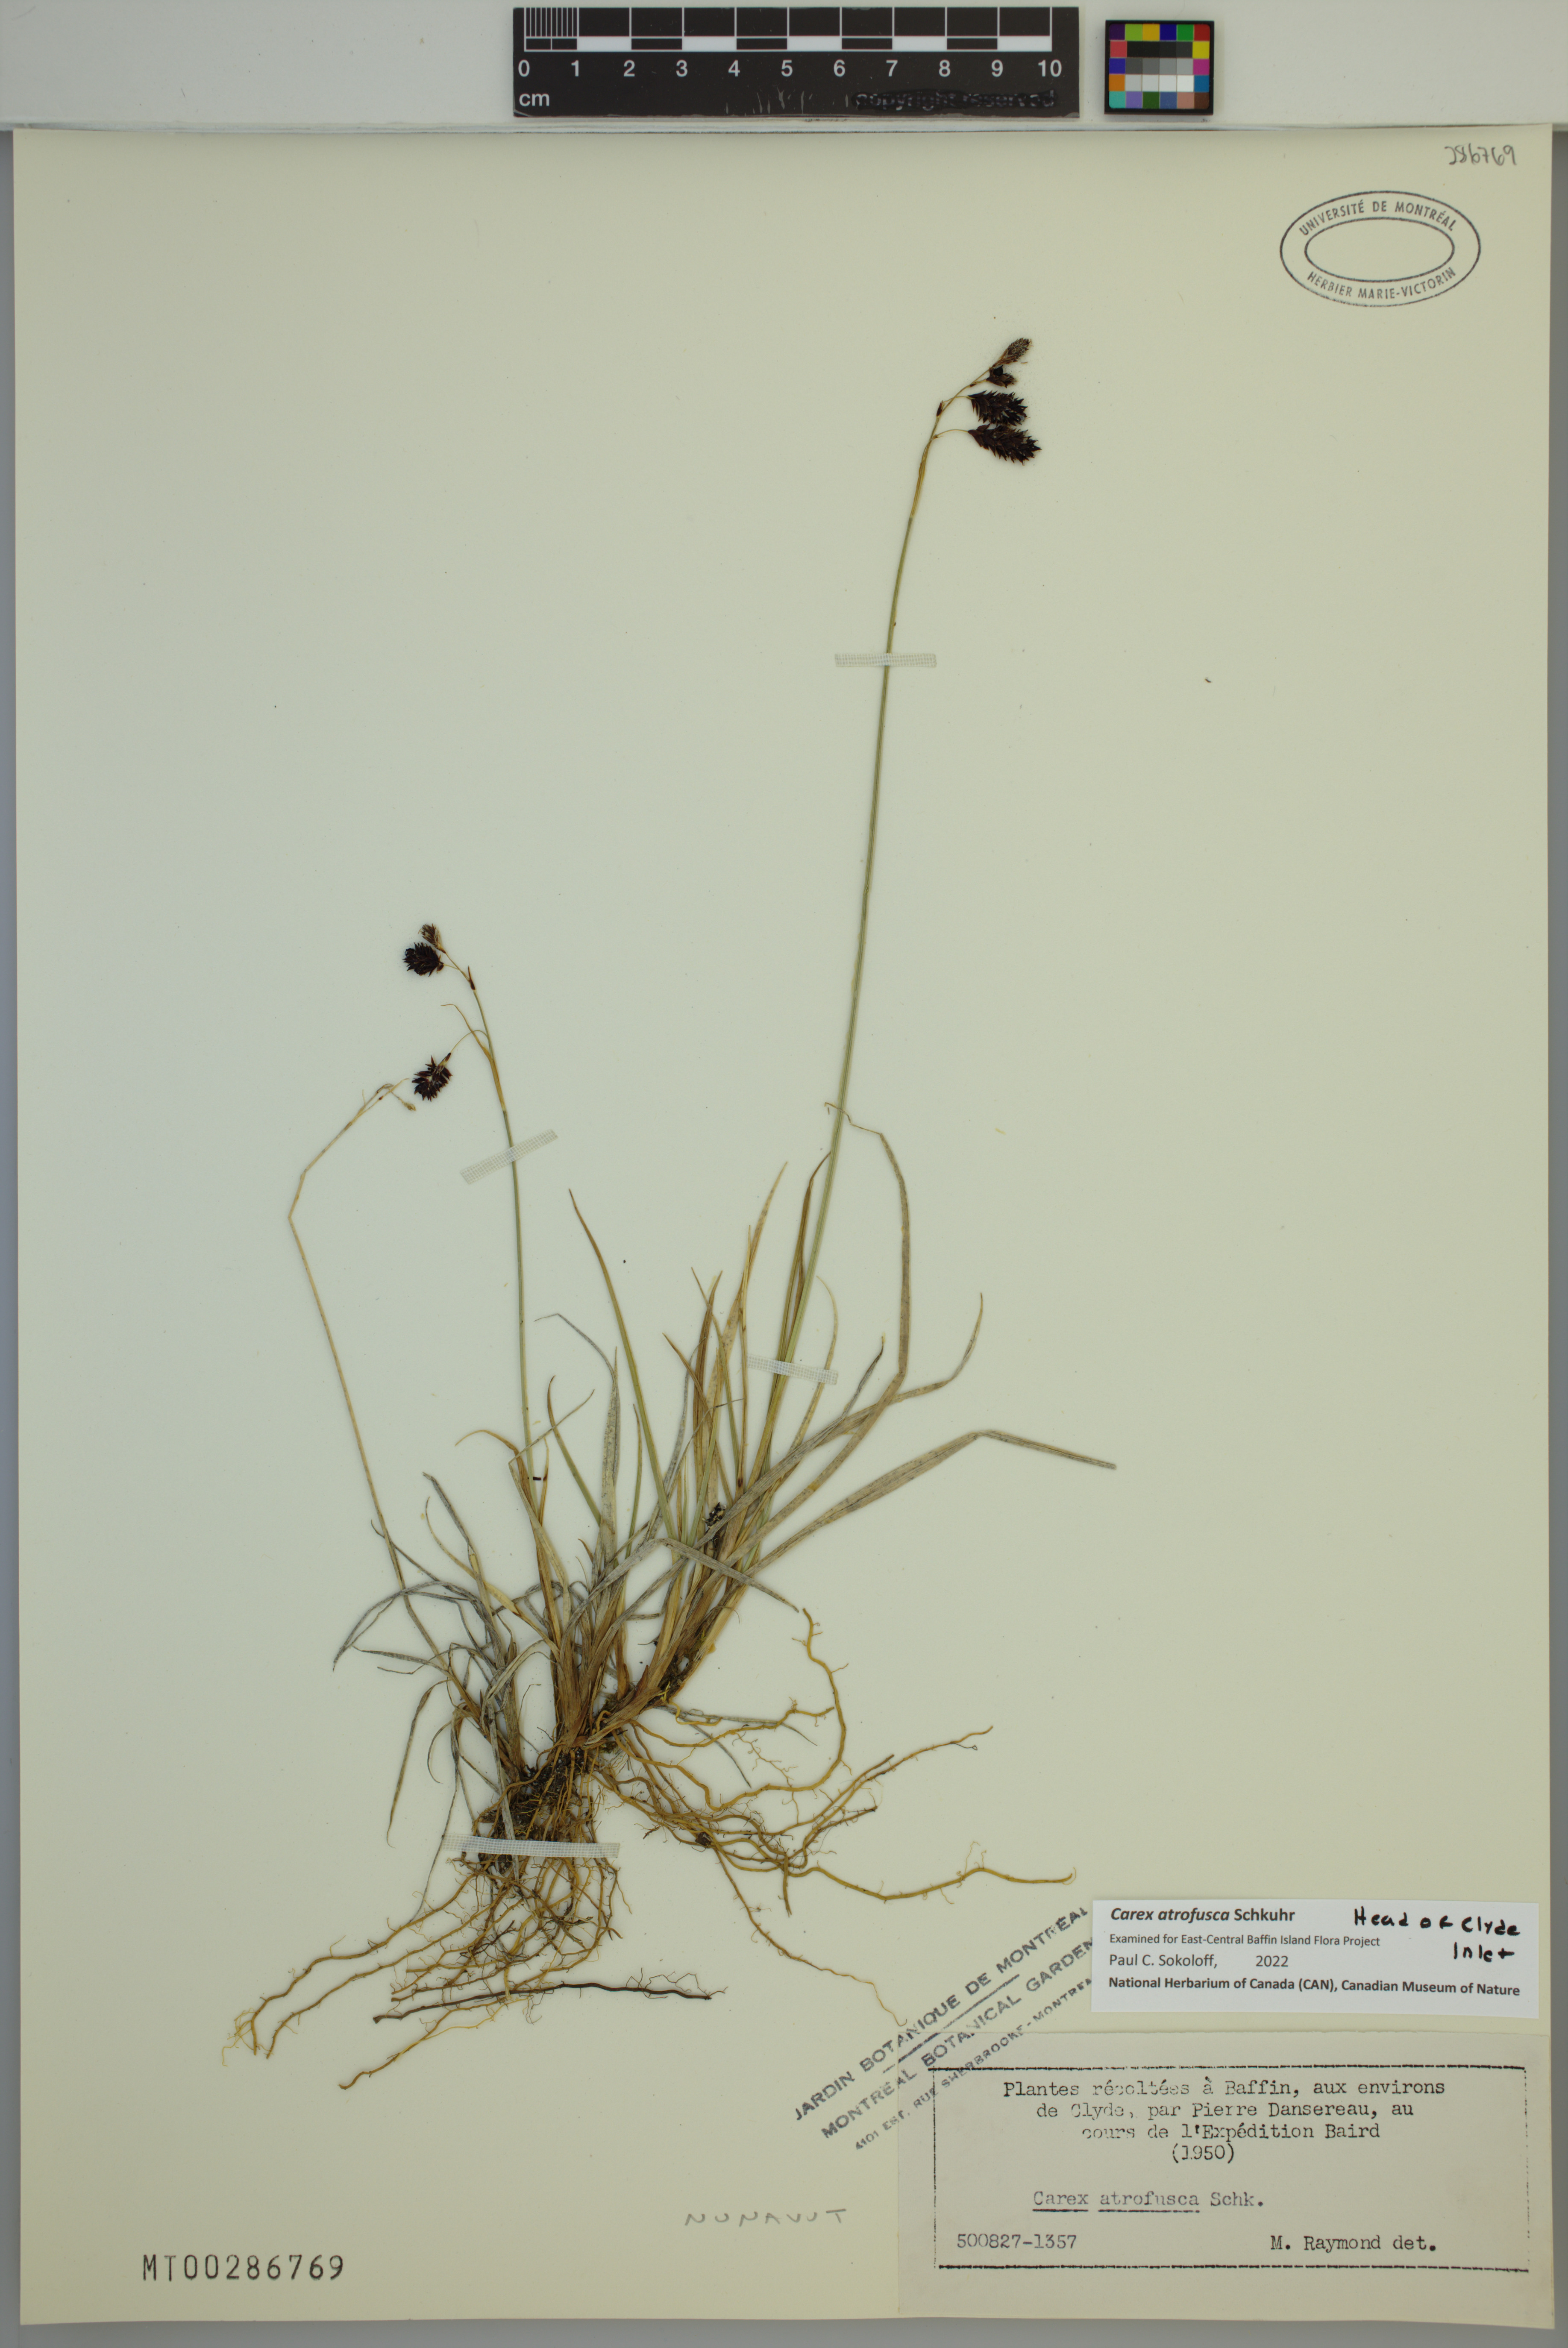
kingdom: Plantae
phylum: Tracheophyta
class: Liliopsida
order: Poales
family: Cyperaceae
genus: Carex
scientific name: Carex atrofusca
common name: Scorched alpine-sedge
